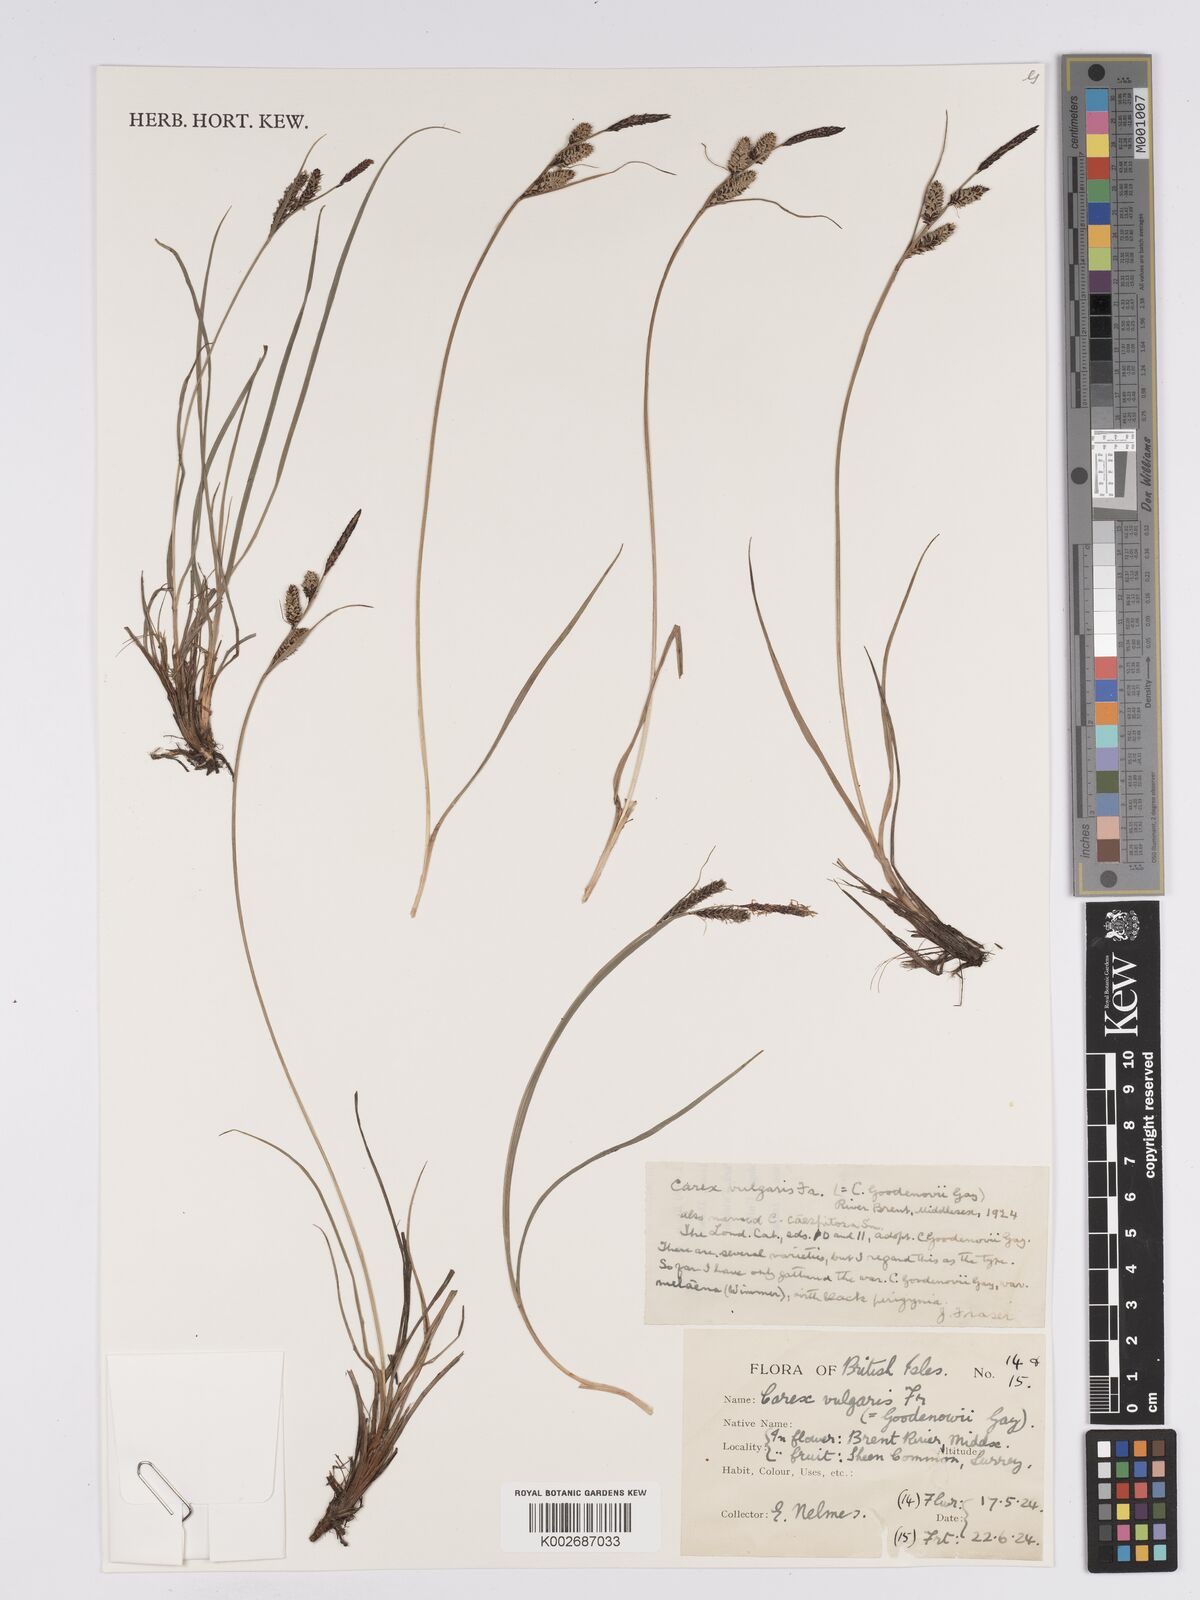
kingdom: Plantae
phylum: Tracheophyta
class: Liliopsida
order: Poales
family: Cyperaceae
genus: Carex
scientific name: Carex nigra
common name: Common sedge
